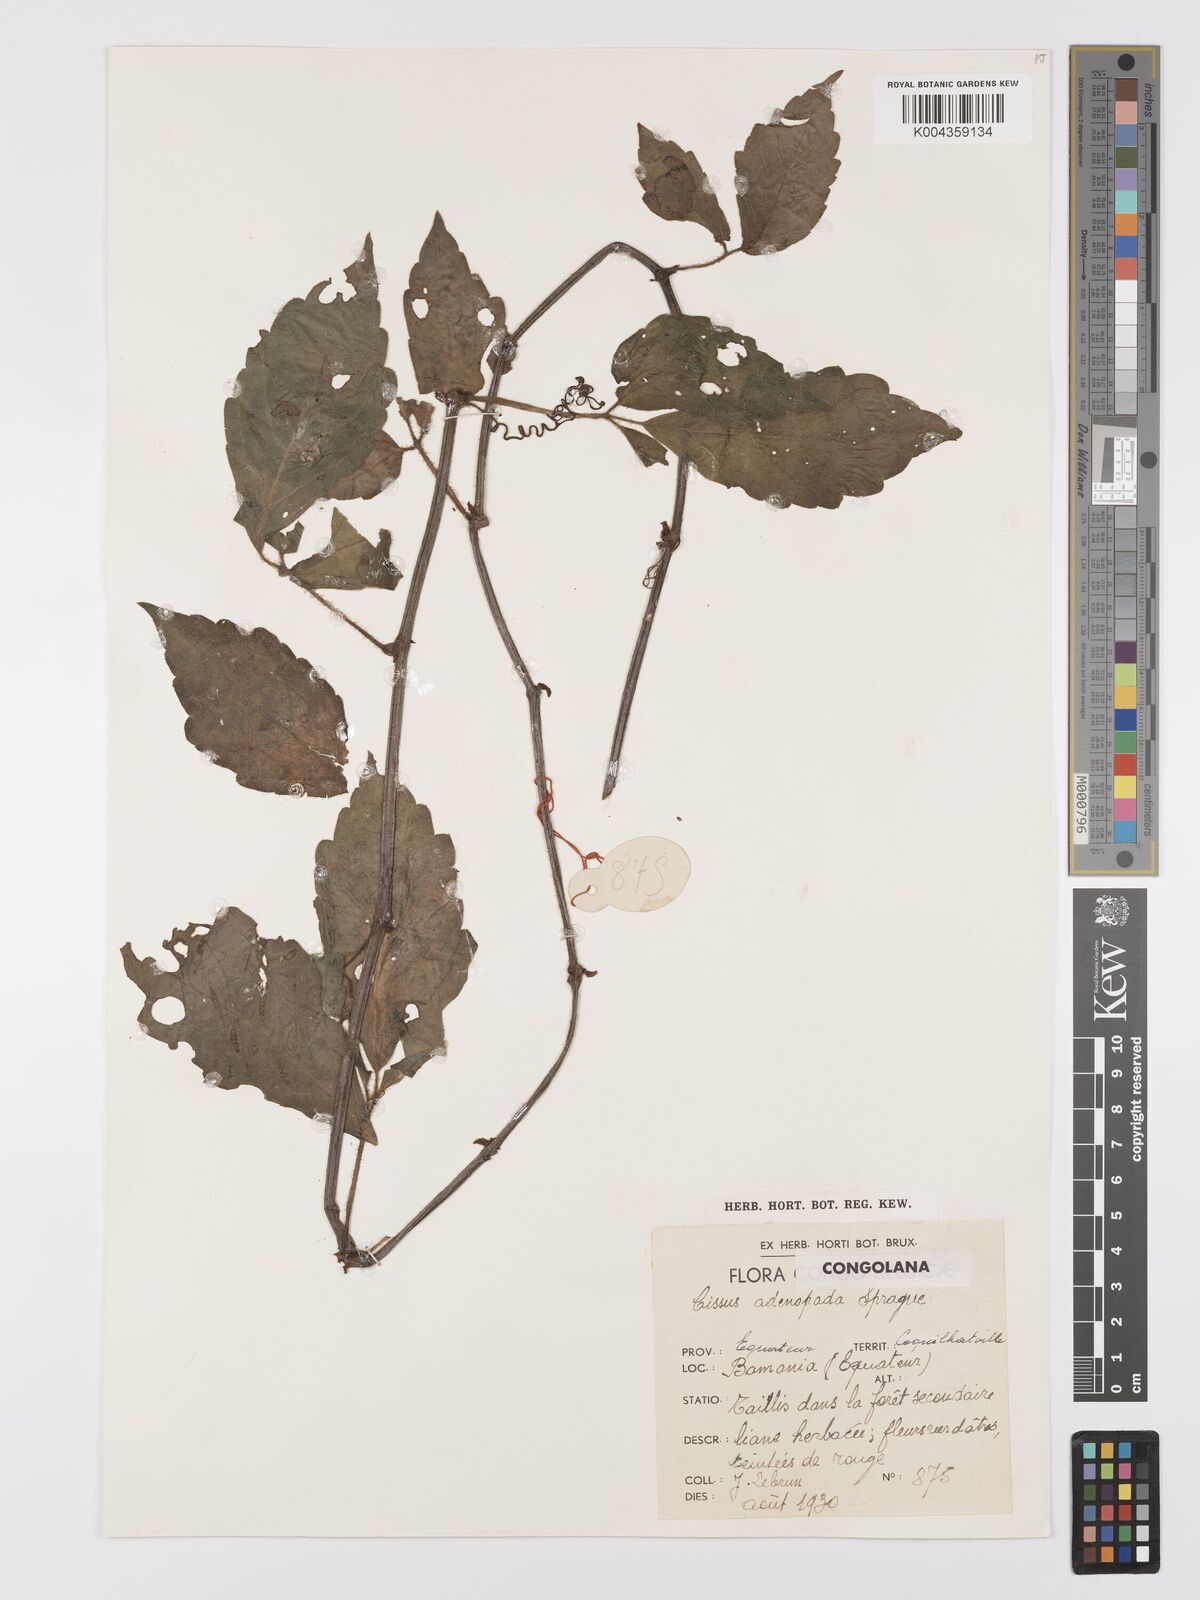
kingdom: Plantae
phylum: Tracheophyta
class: Magnoliopsida
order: Vitales
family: Vitaceae
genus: Cyphostemma
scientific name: Cyphostemma adenopodum
